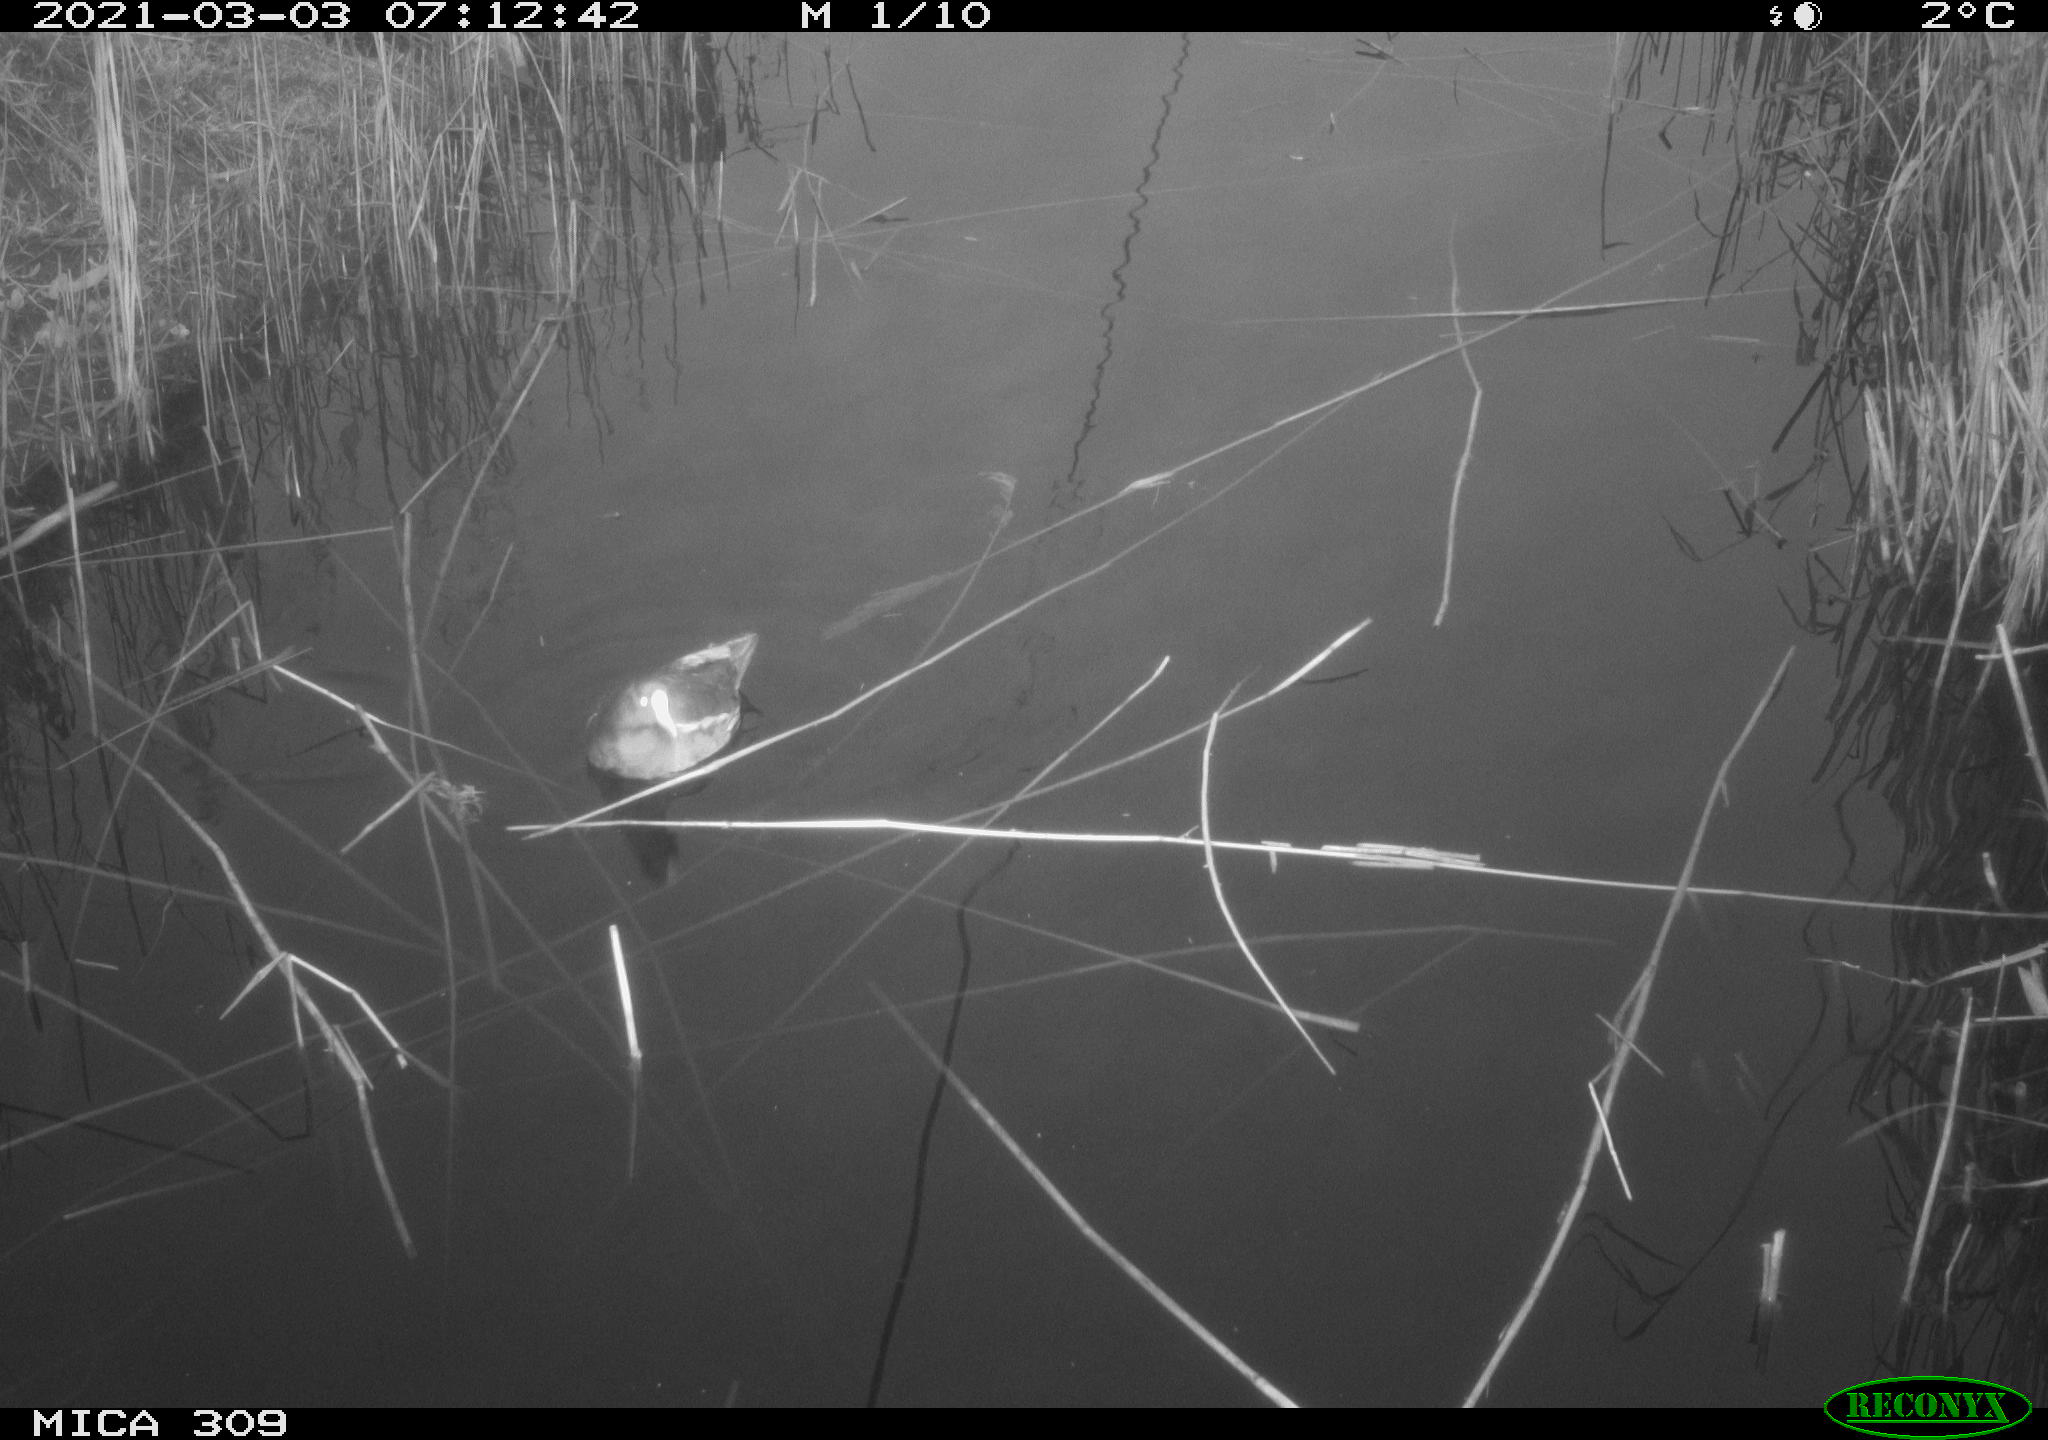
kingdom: Animalia
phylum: Chordata
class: Aves
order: Gruiformes
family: Rallidae
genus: Gallinula
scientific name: Gallinula chloropus
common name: Common moorhen
